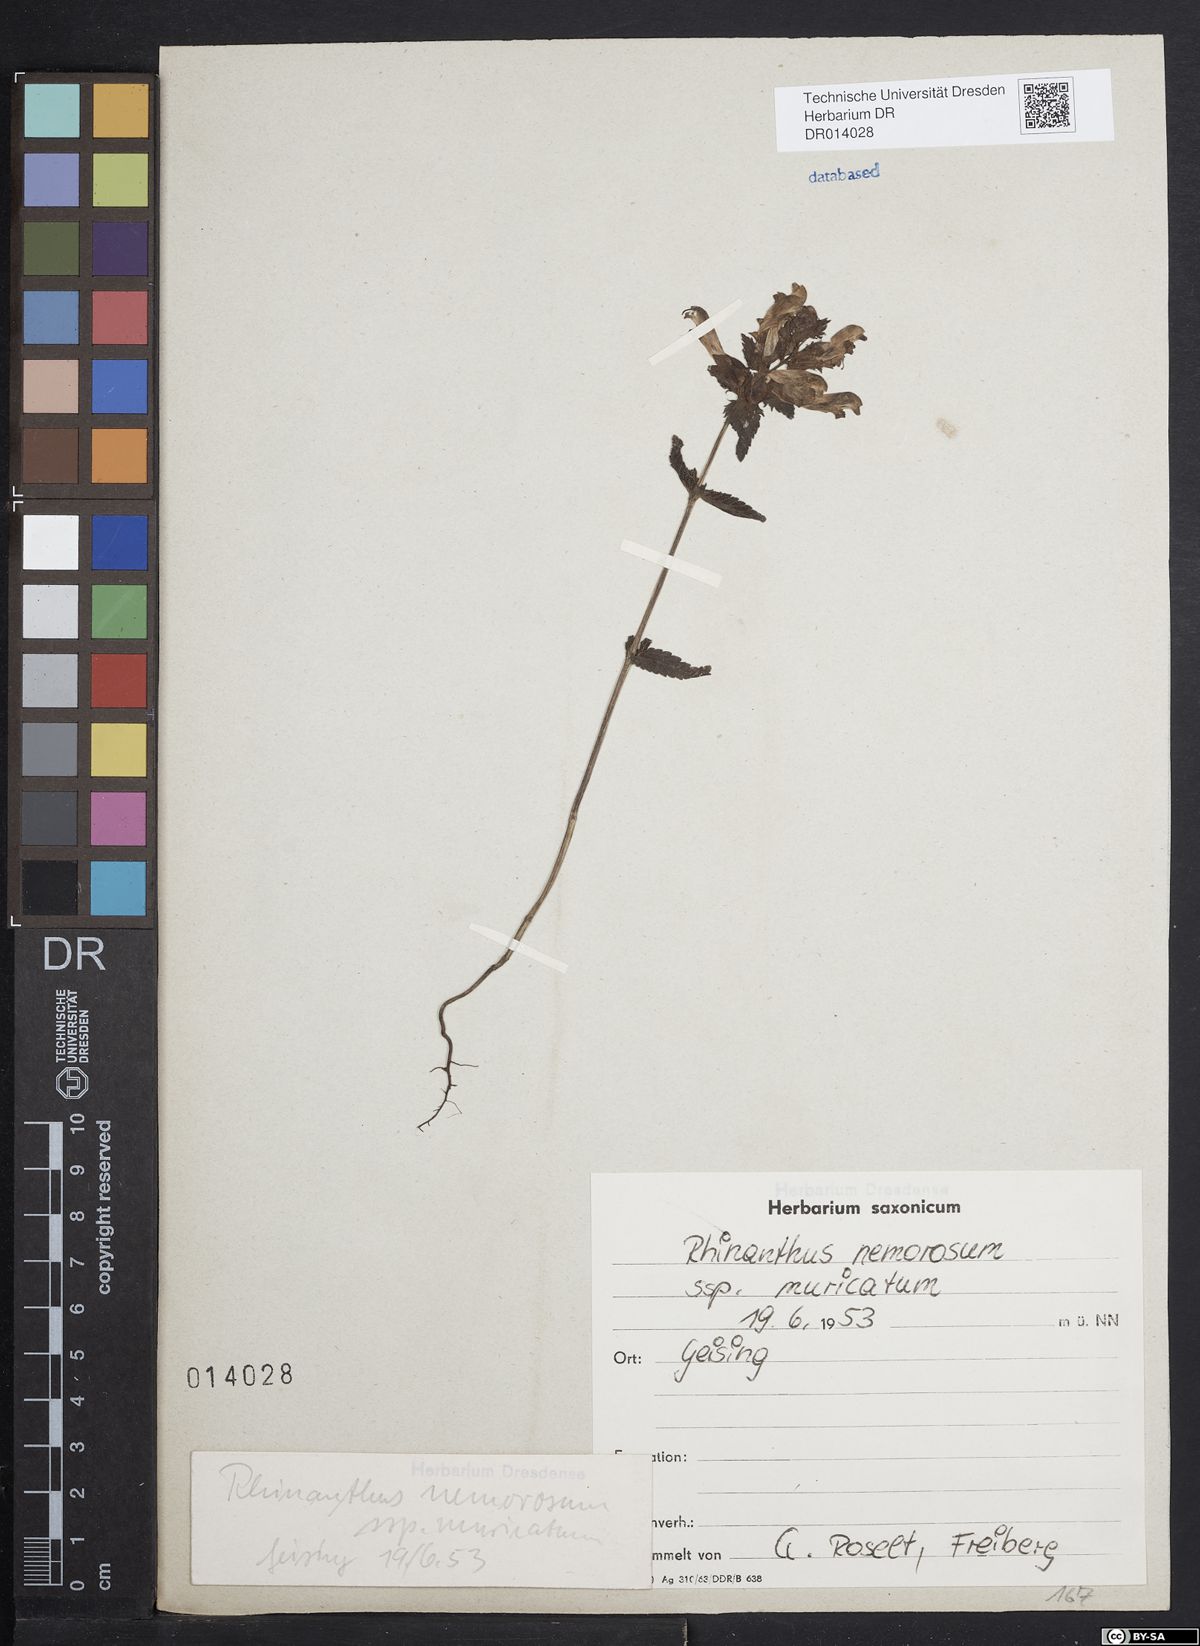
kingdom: Plantae
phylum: Tracheophyta
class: Magnoliopsida
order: Lamiales
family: Orobanchaceae
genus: Rhinanthus
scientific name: Rhinanthus serotinus
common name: Late-flowering yellow rattle
